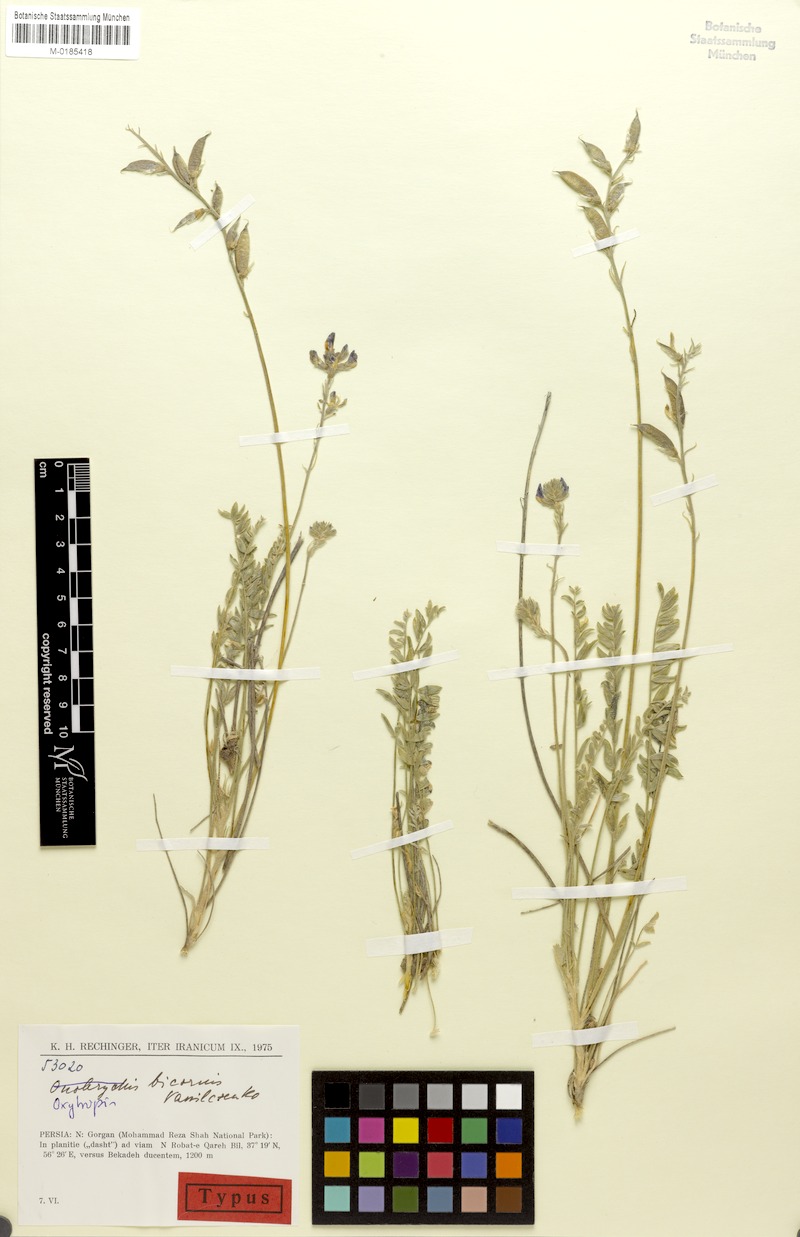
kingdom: Plantae
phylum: Tracheophyta
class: Magnoliopsida
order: Fabales
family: Fabaceae
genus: Oxytropis
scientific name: Oxytropis bicornis
